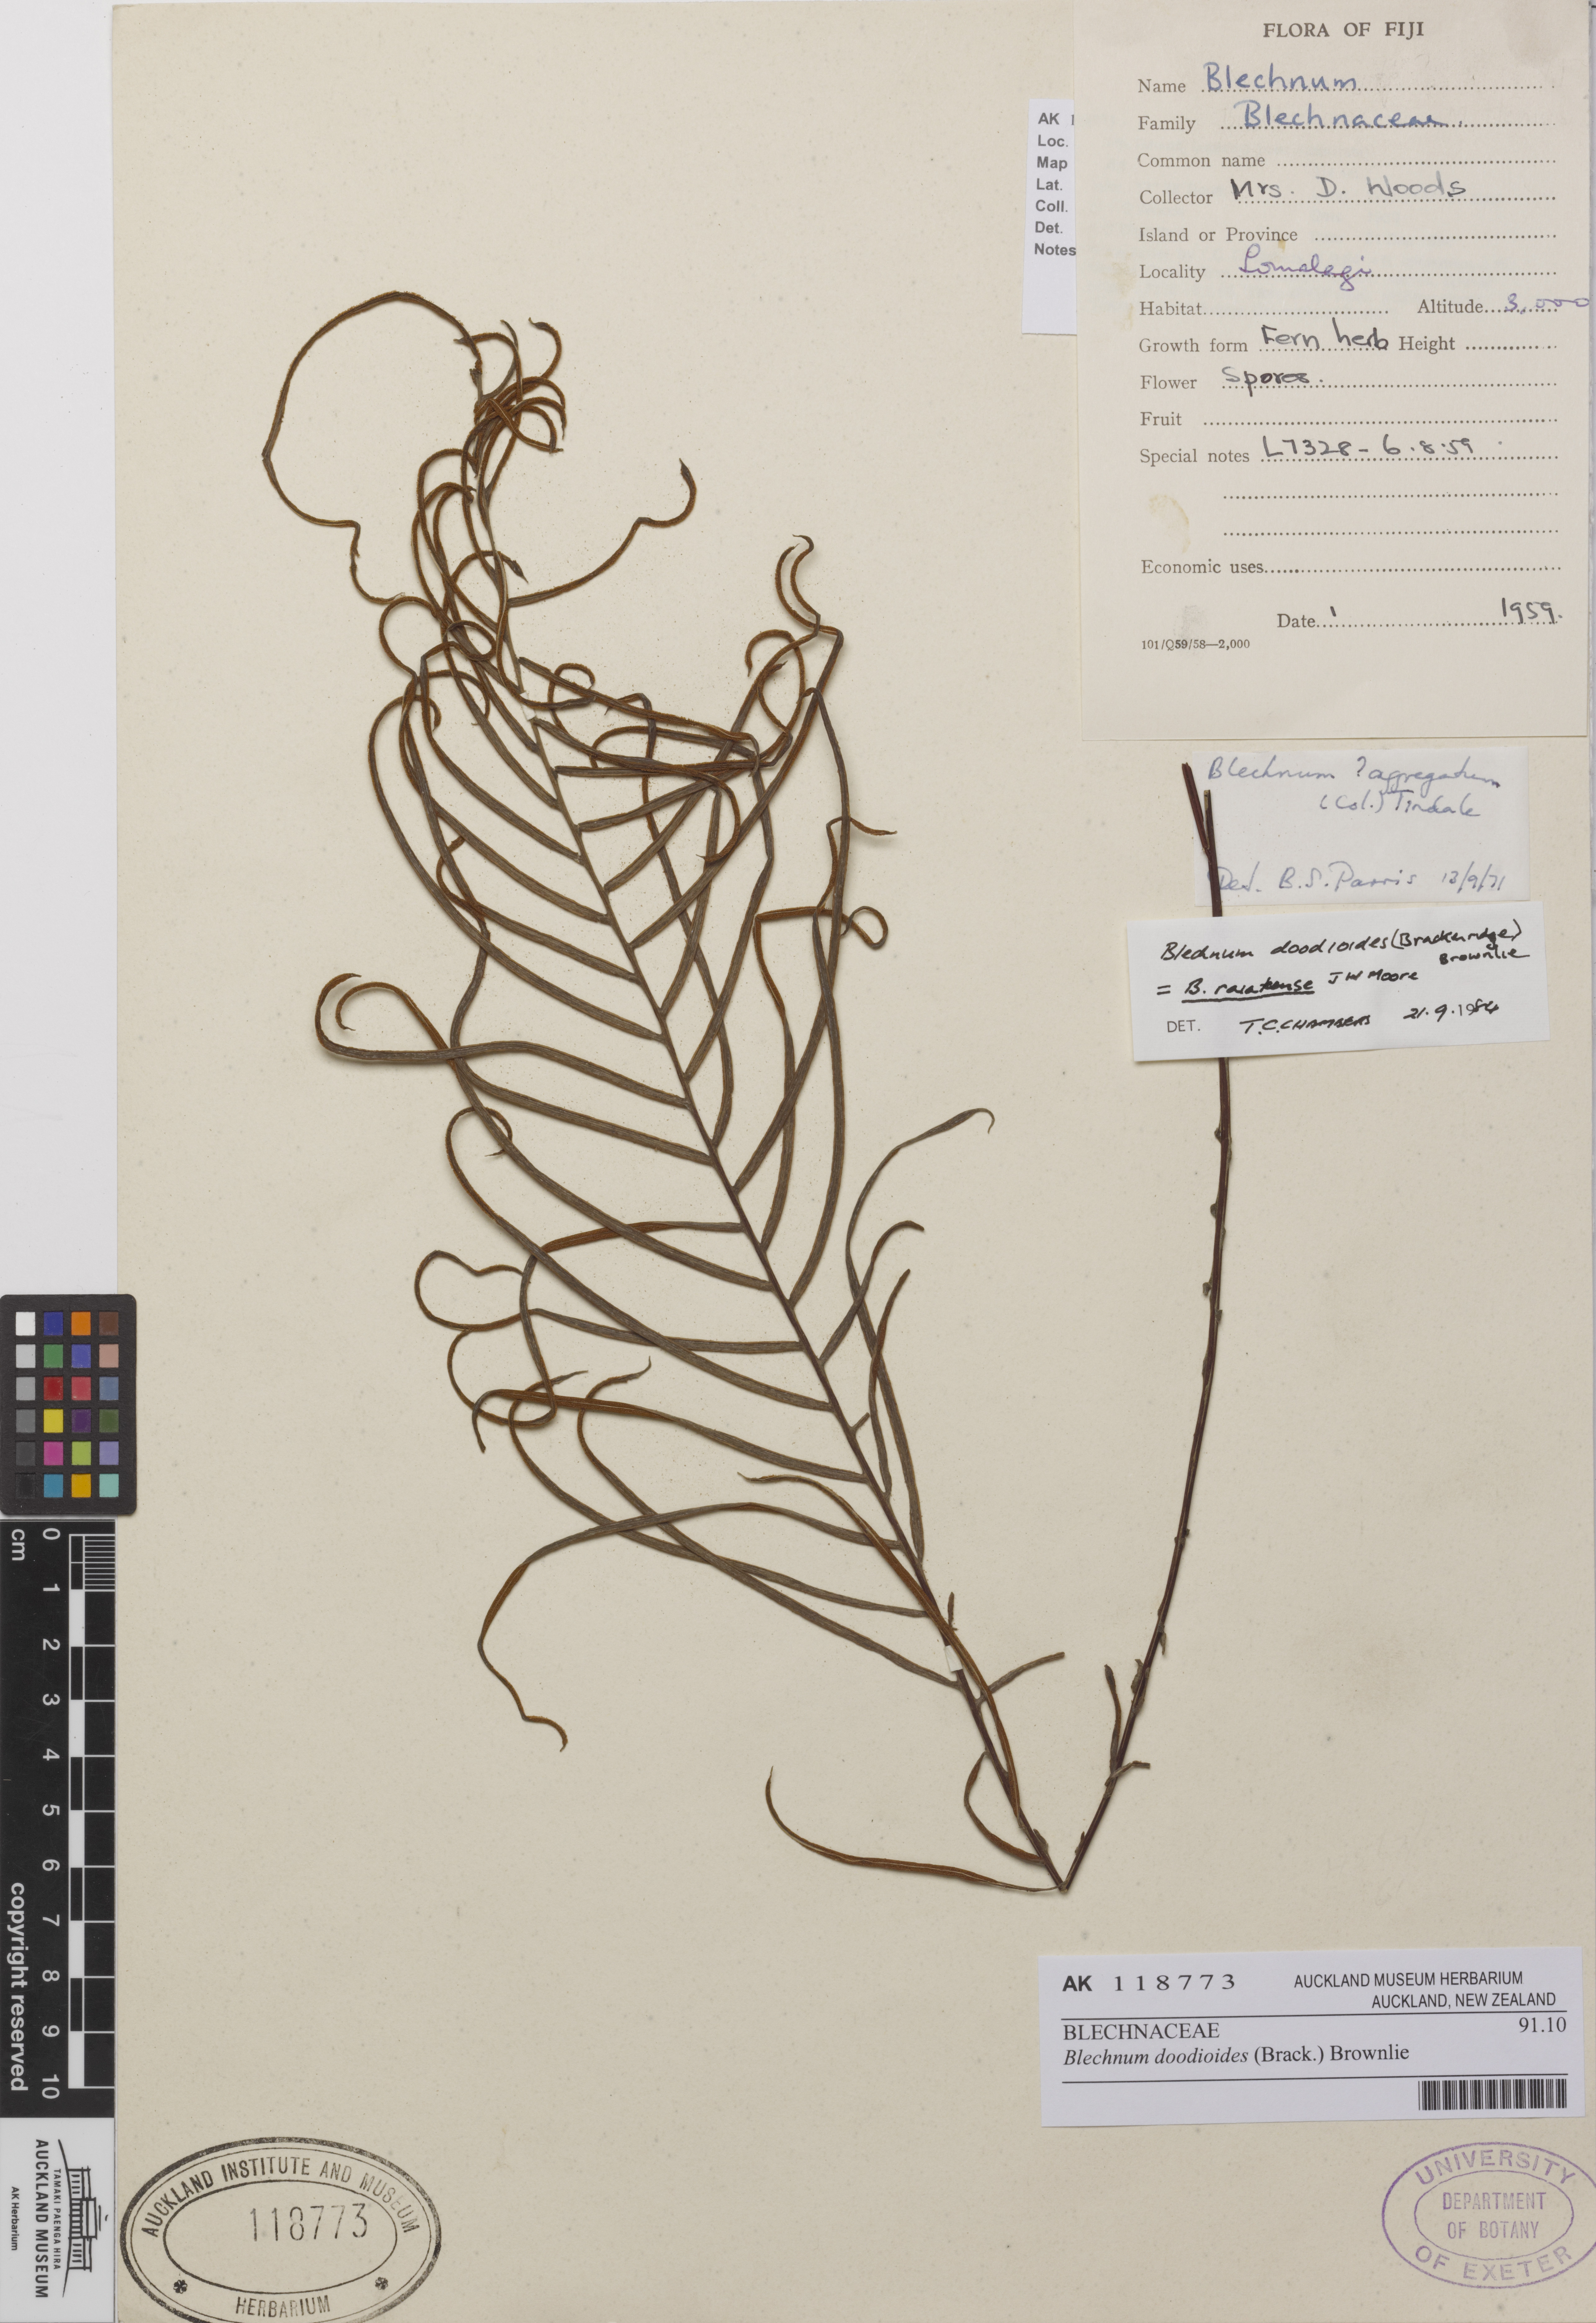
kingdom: Plantae
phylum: Tracheophyta
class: Polypodiopsida
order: Polypodiales
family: Blechnaceae
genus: Austroblechnum
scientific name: Austroblechnum lanceolatum
